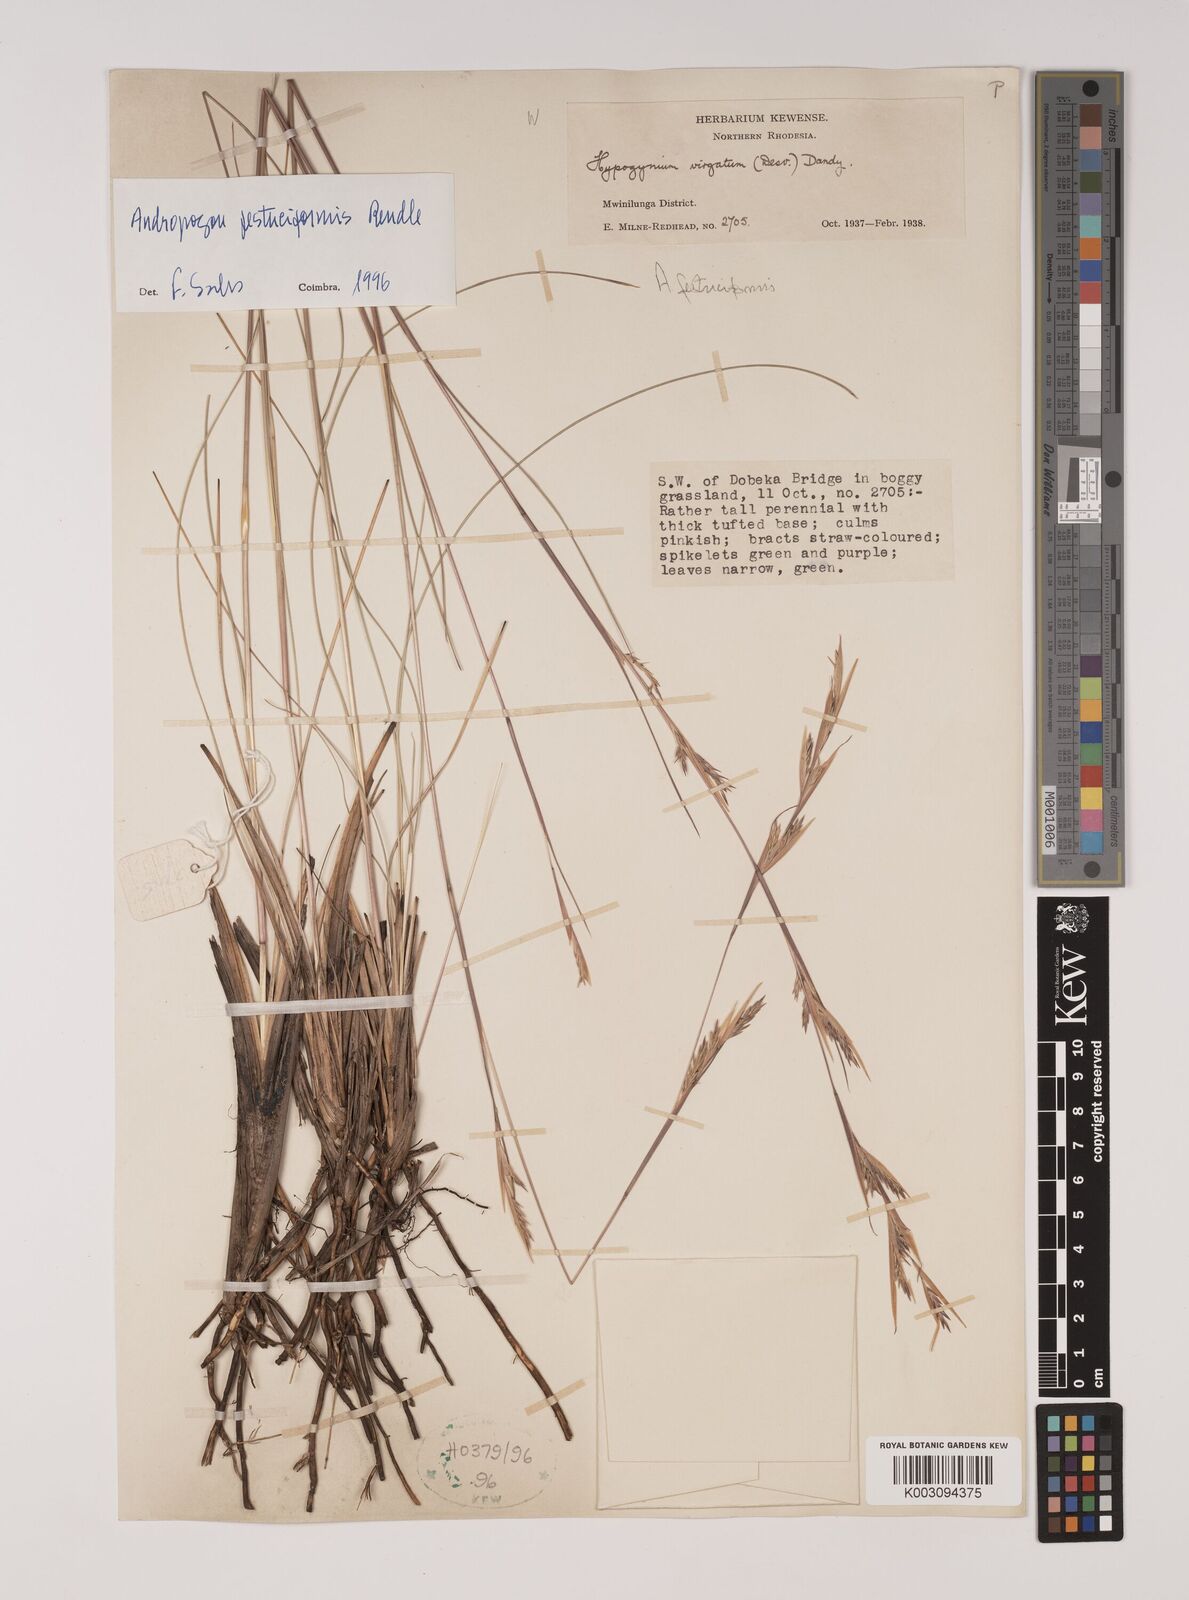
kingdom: Plantae
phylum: Tracheophyta
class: Liliopsida
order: Poales
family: Poaceae
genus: Andropogon
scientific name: Andropogon festuciformis
